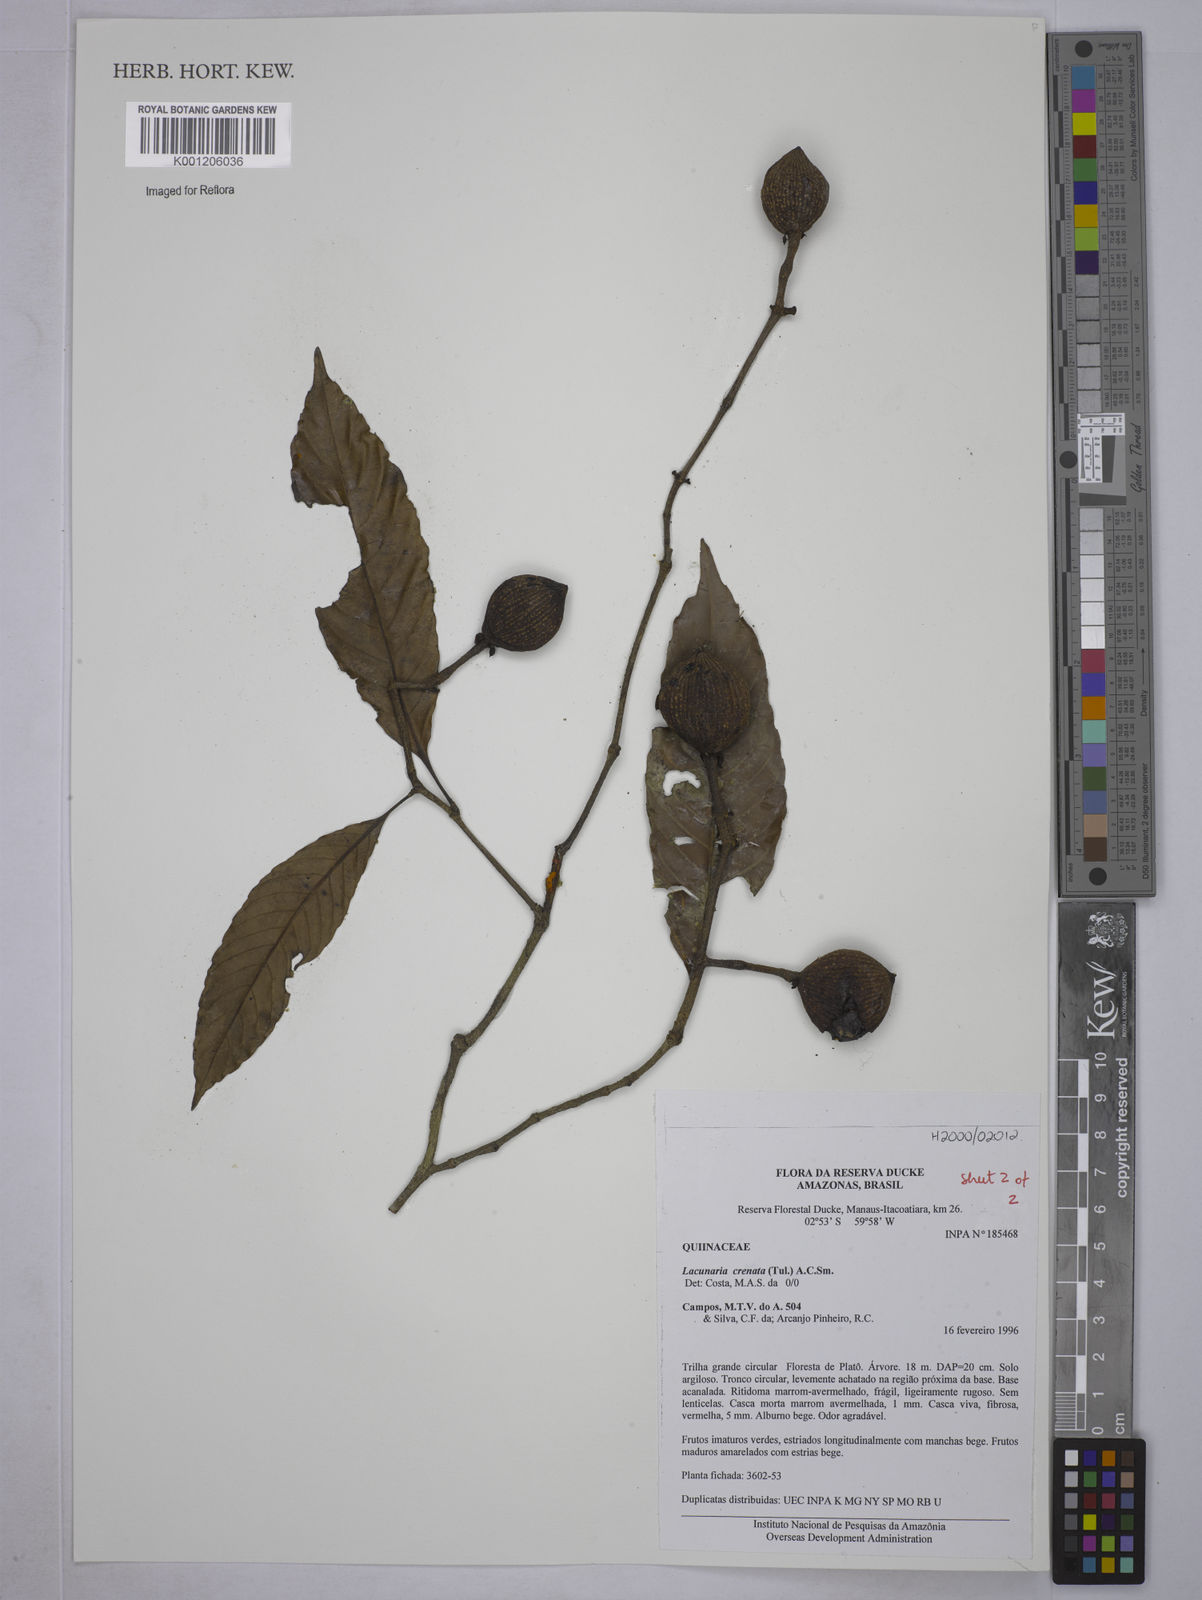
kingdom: Plantae
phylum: Tracheophyta
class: Magnoliopsida
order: Malpighiales
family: Quiinaceae
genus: Lacunaria
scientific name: Lacunaria crenata
